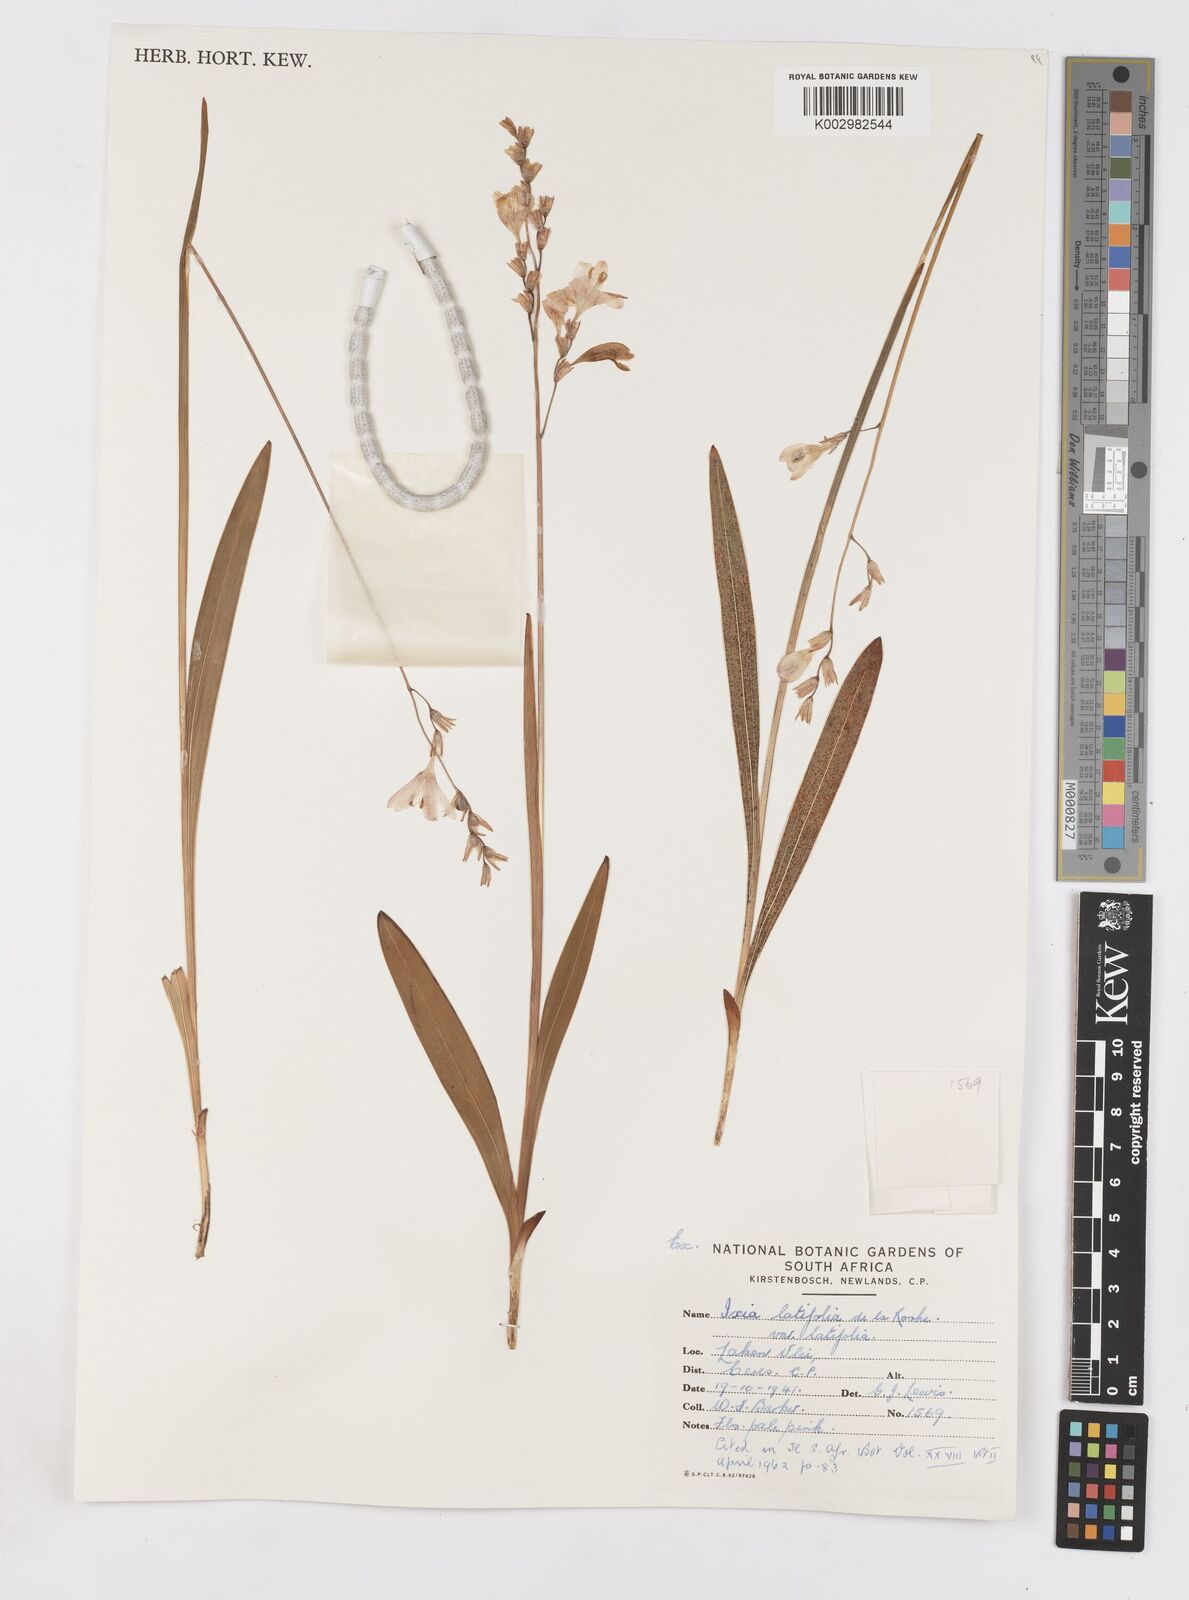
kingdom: Plantae
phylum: Tracheophyta
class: Liliopsida
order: Asparagales
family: Iridaceae
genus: Ixia
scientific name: Ixia latifolia
